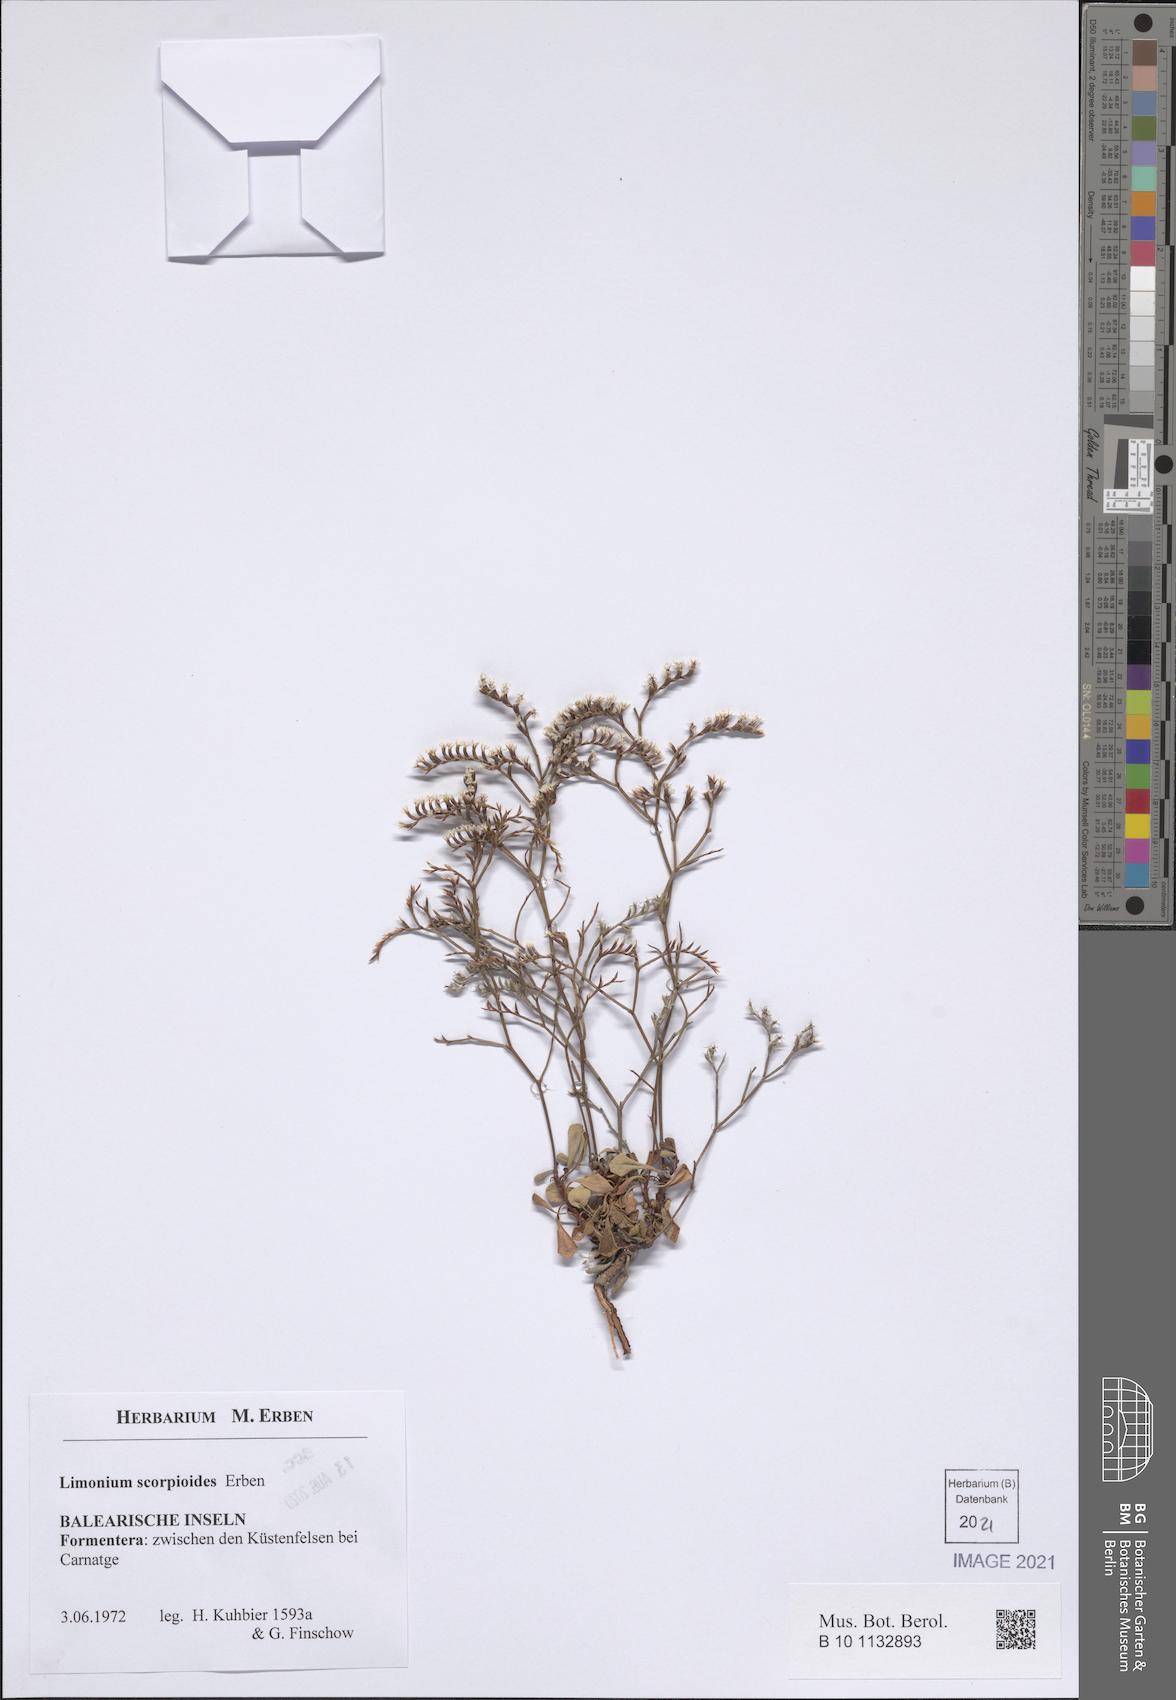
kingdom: Plantae
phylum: Tracheophyta
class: Magnoliopsida
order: Caryophyllales
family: Plumbaginaceae
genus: Limonium
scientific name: Limonium scorpioides
